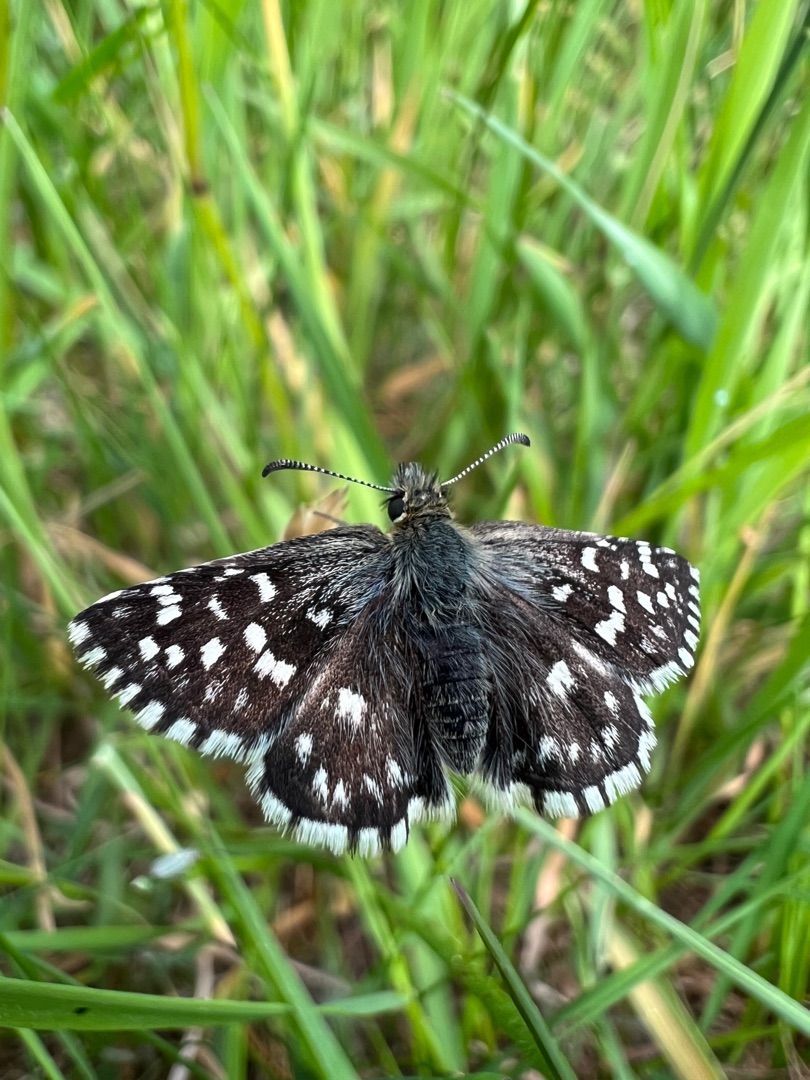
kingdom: Animalia
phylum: Arthropoda
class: Insecta
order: Lepidoptera
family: Hesperiidae
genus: Pyrgus
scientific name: Pyrgus malvae
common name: Spættet bredpande
